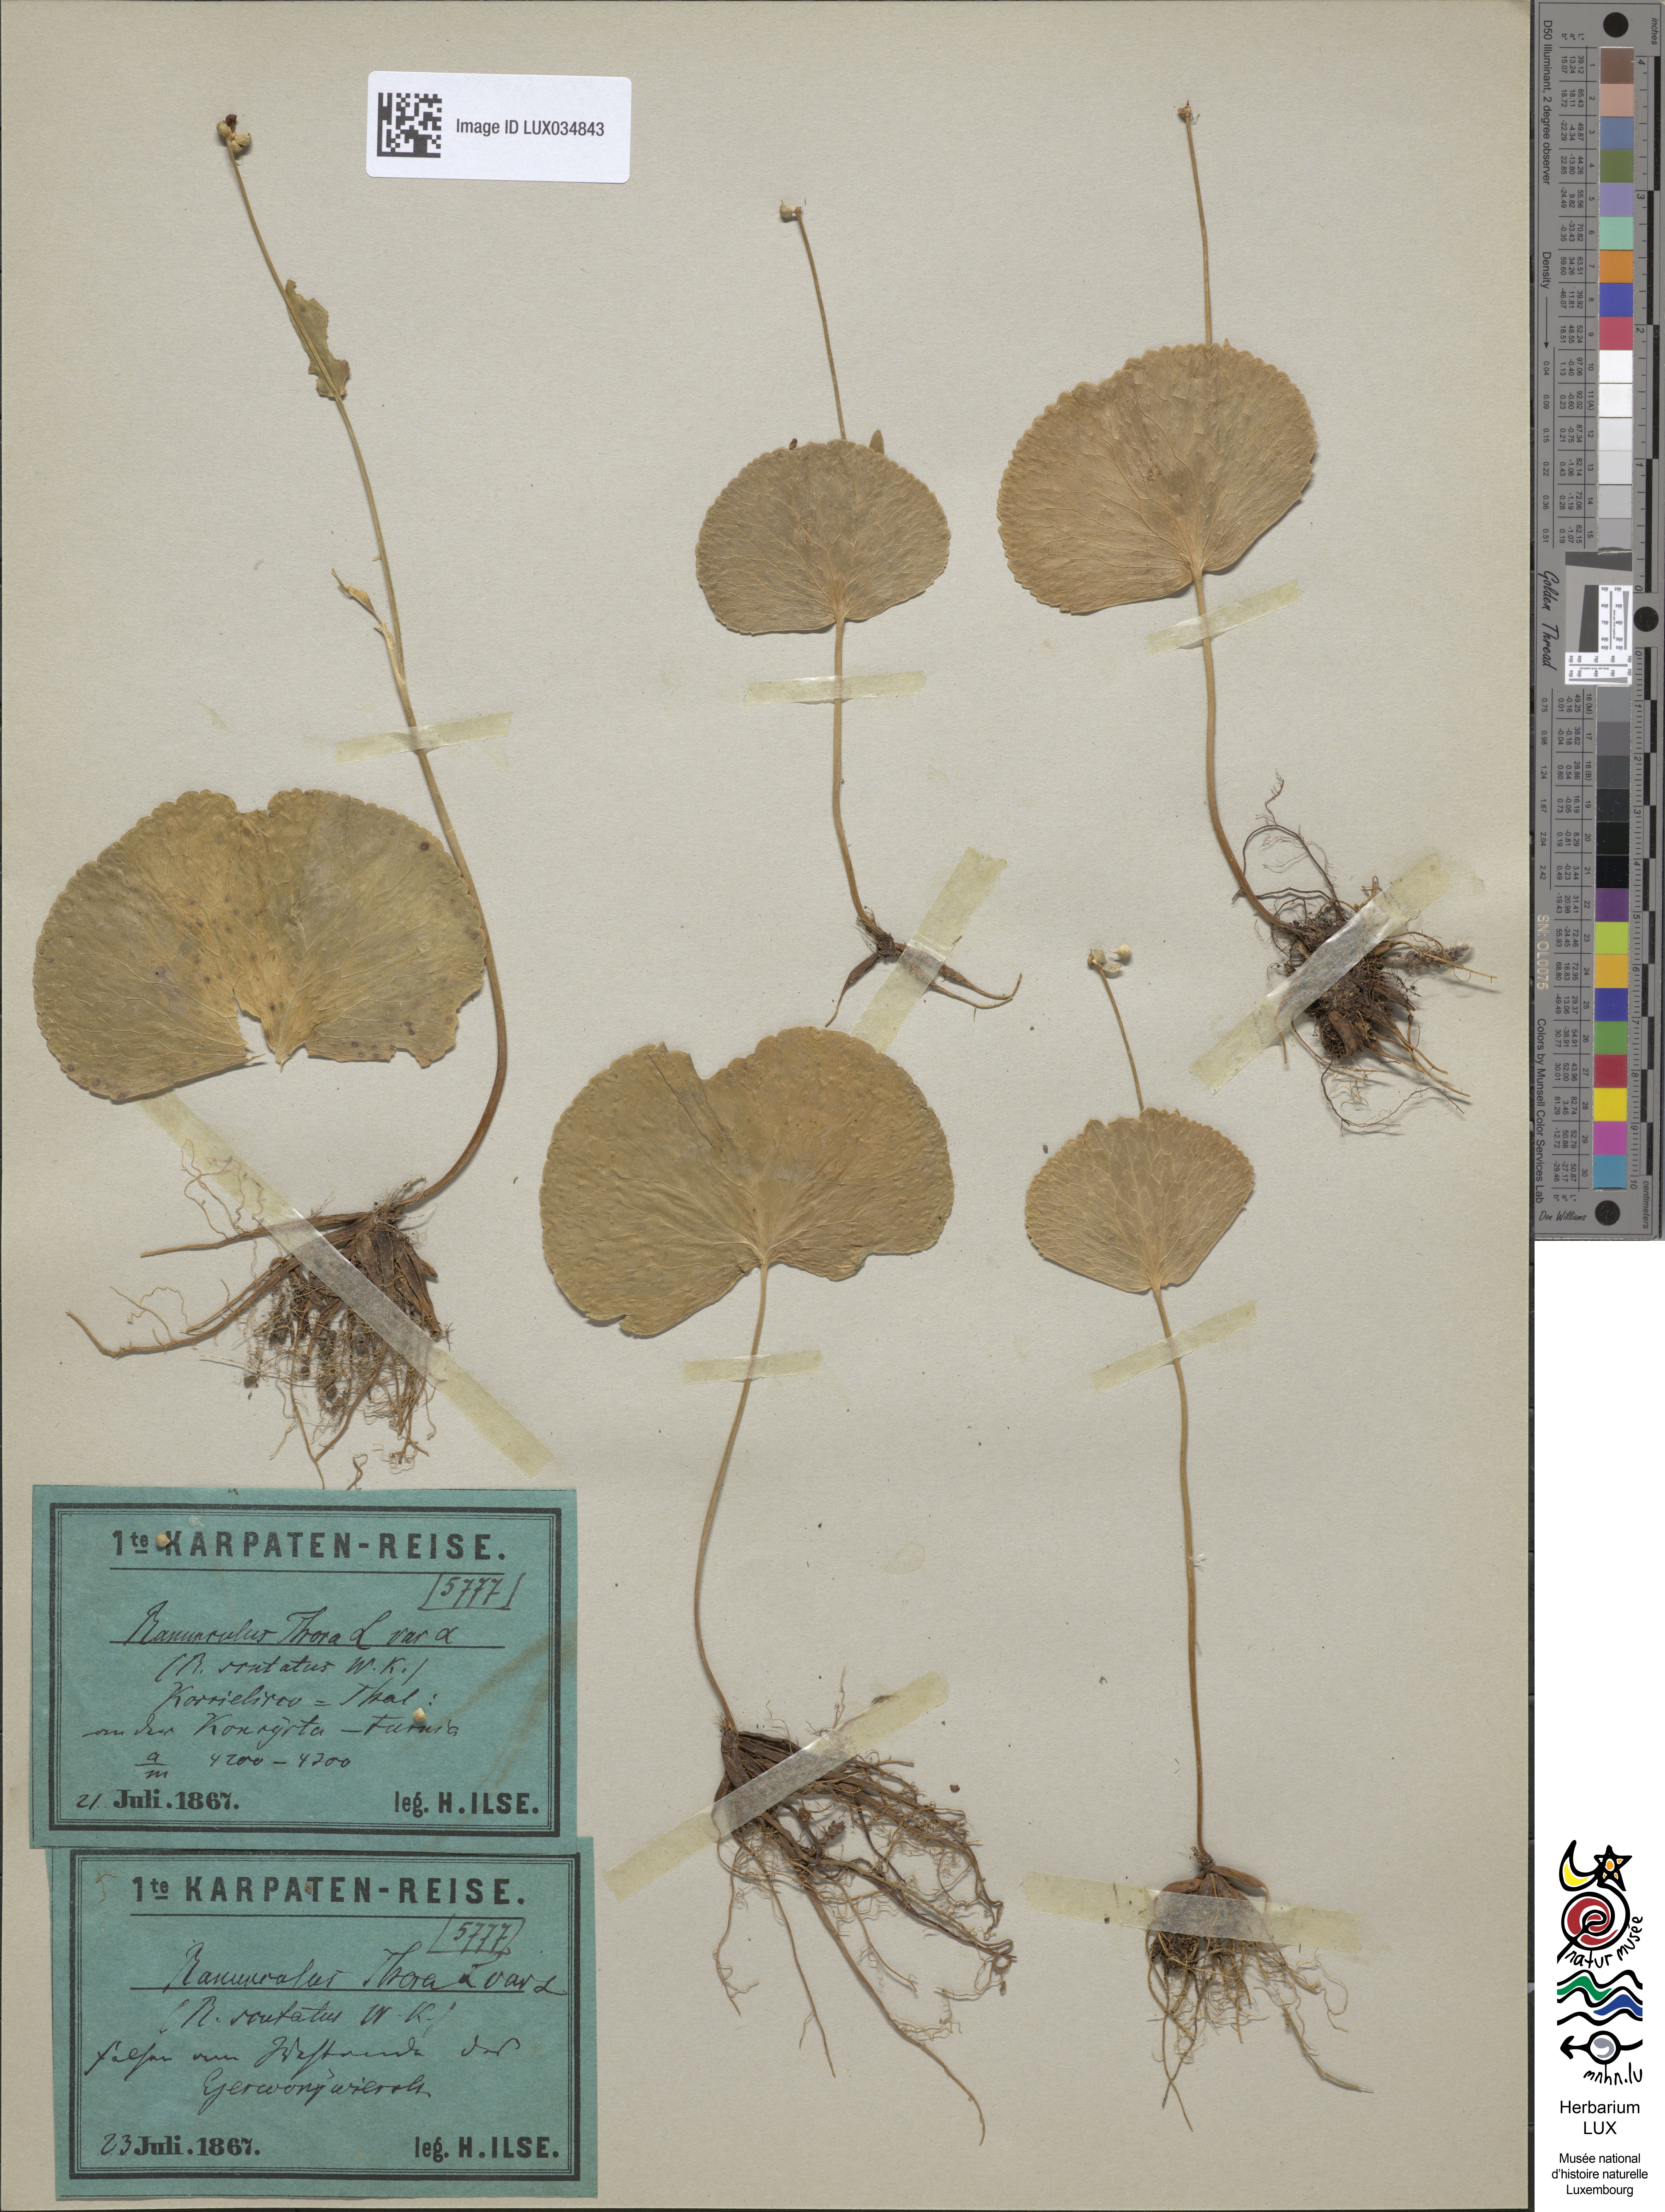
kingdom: Plantae
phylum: Tracheophyta
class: Magnoliopsida
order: Ranunculales
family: Ranunculaceae
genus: Ranunculus
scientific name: Ranunculus thora
